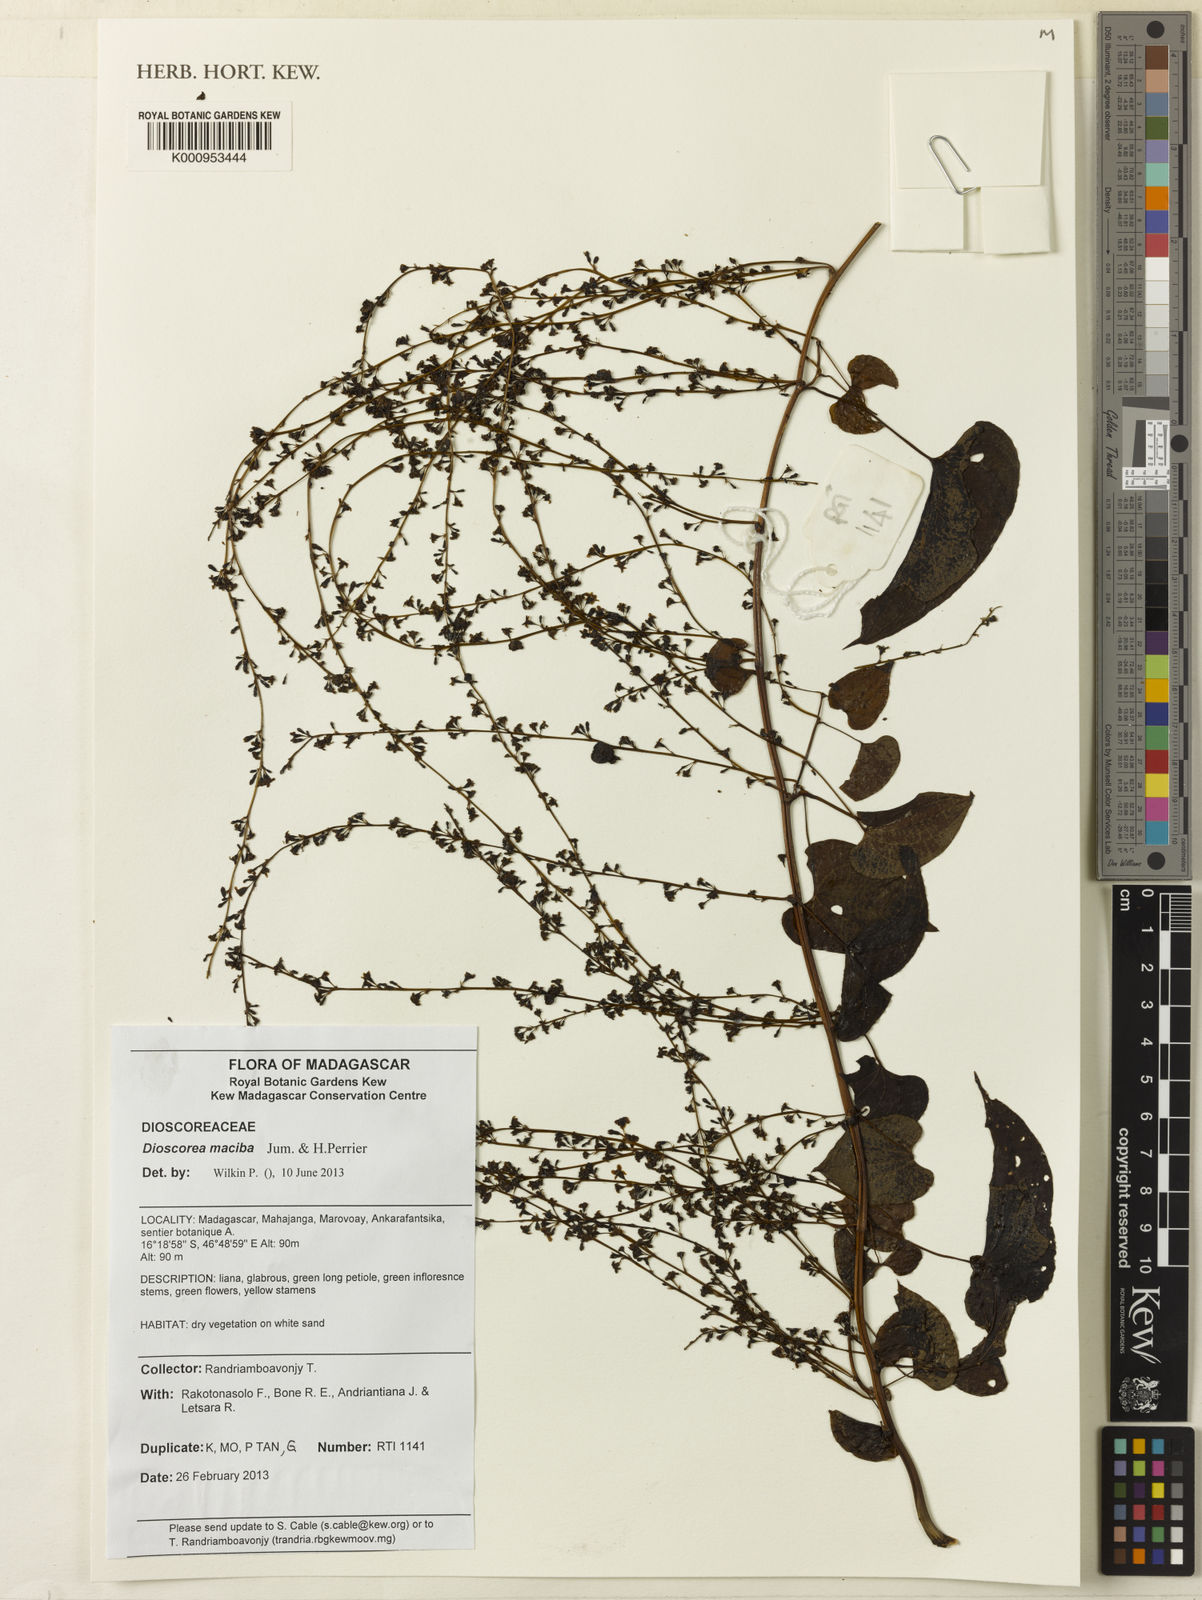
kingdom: Plantae
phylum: Tracheophyta
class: Liliopsida
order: Dioscoreales
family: Dioscoreaceae
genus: Dioscorea
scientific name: Dioscorea maciba
